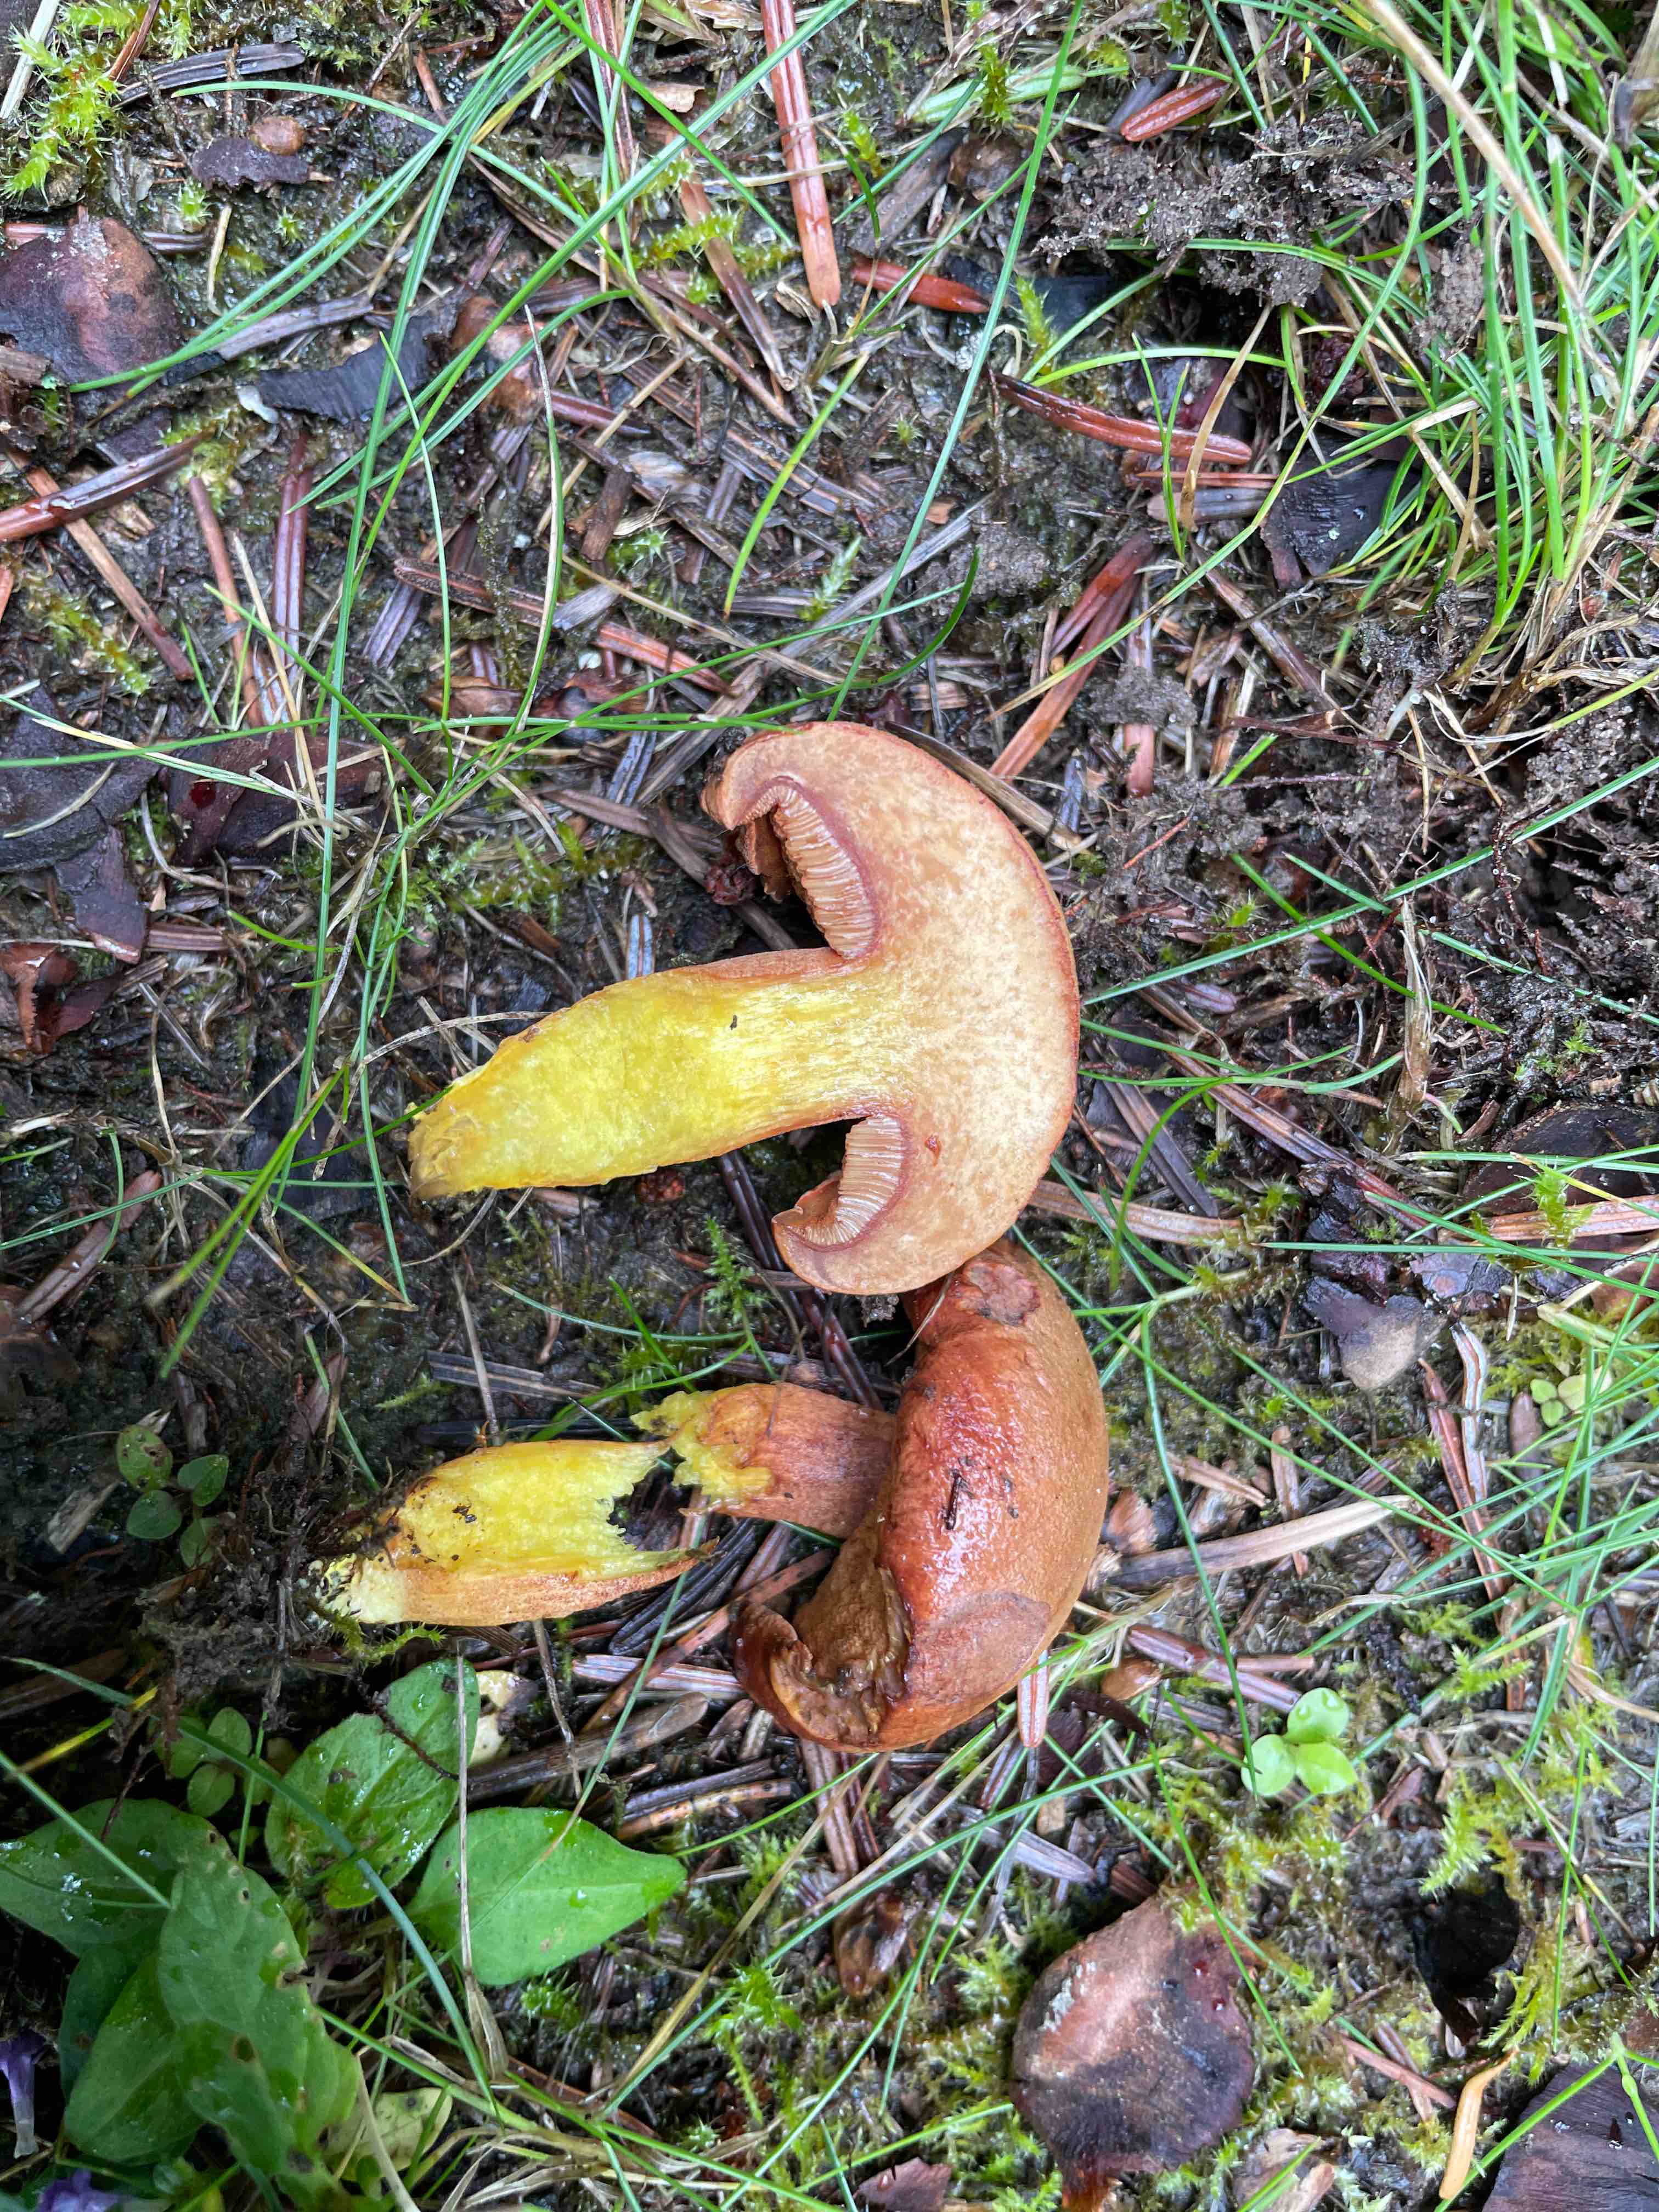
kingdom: Fungi
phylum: Basidiomycota
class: Agaricomycetes
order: Boletales
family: Boletaceae
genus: Chalciporus
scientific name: Chalciporus piperatus
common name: peberrørhat
